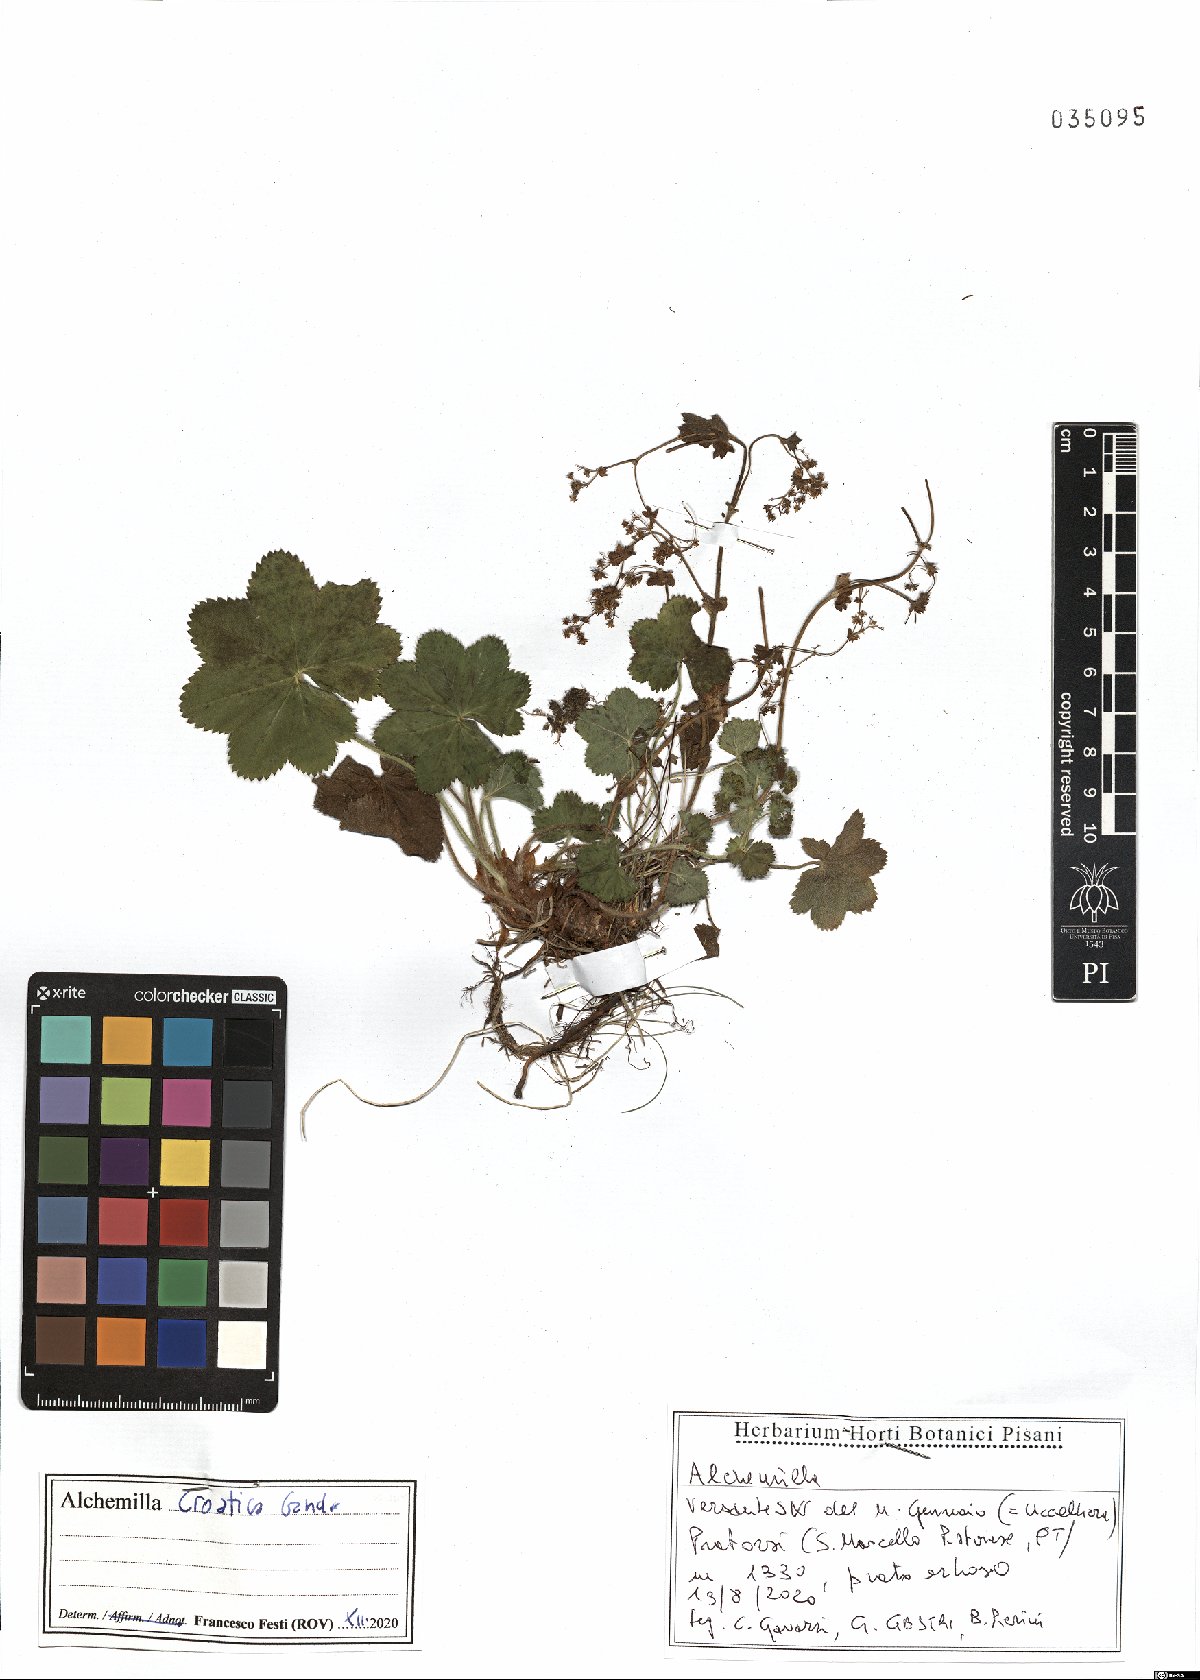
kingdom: Plantae
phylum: Tracheophyta
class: Magnoliopsida
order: Rosales
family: Rosaceae
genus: Alchemilla
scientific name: Alchemilla croatica
